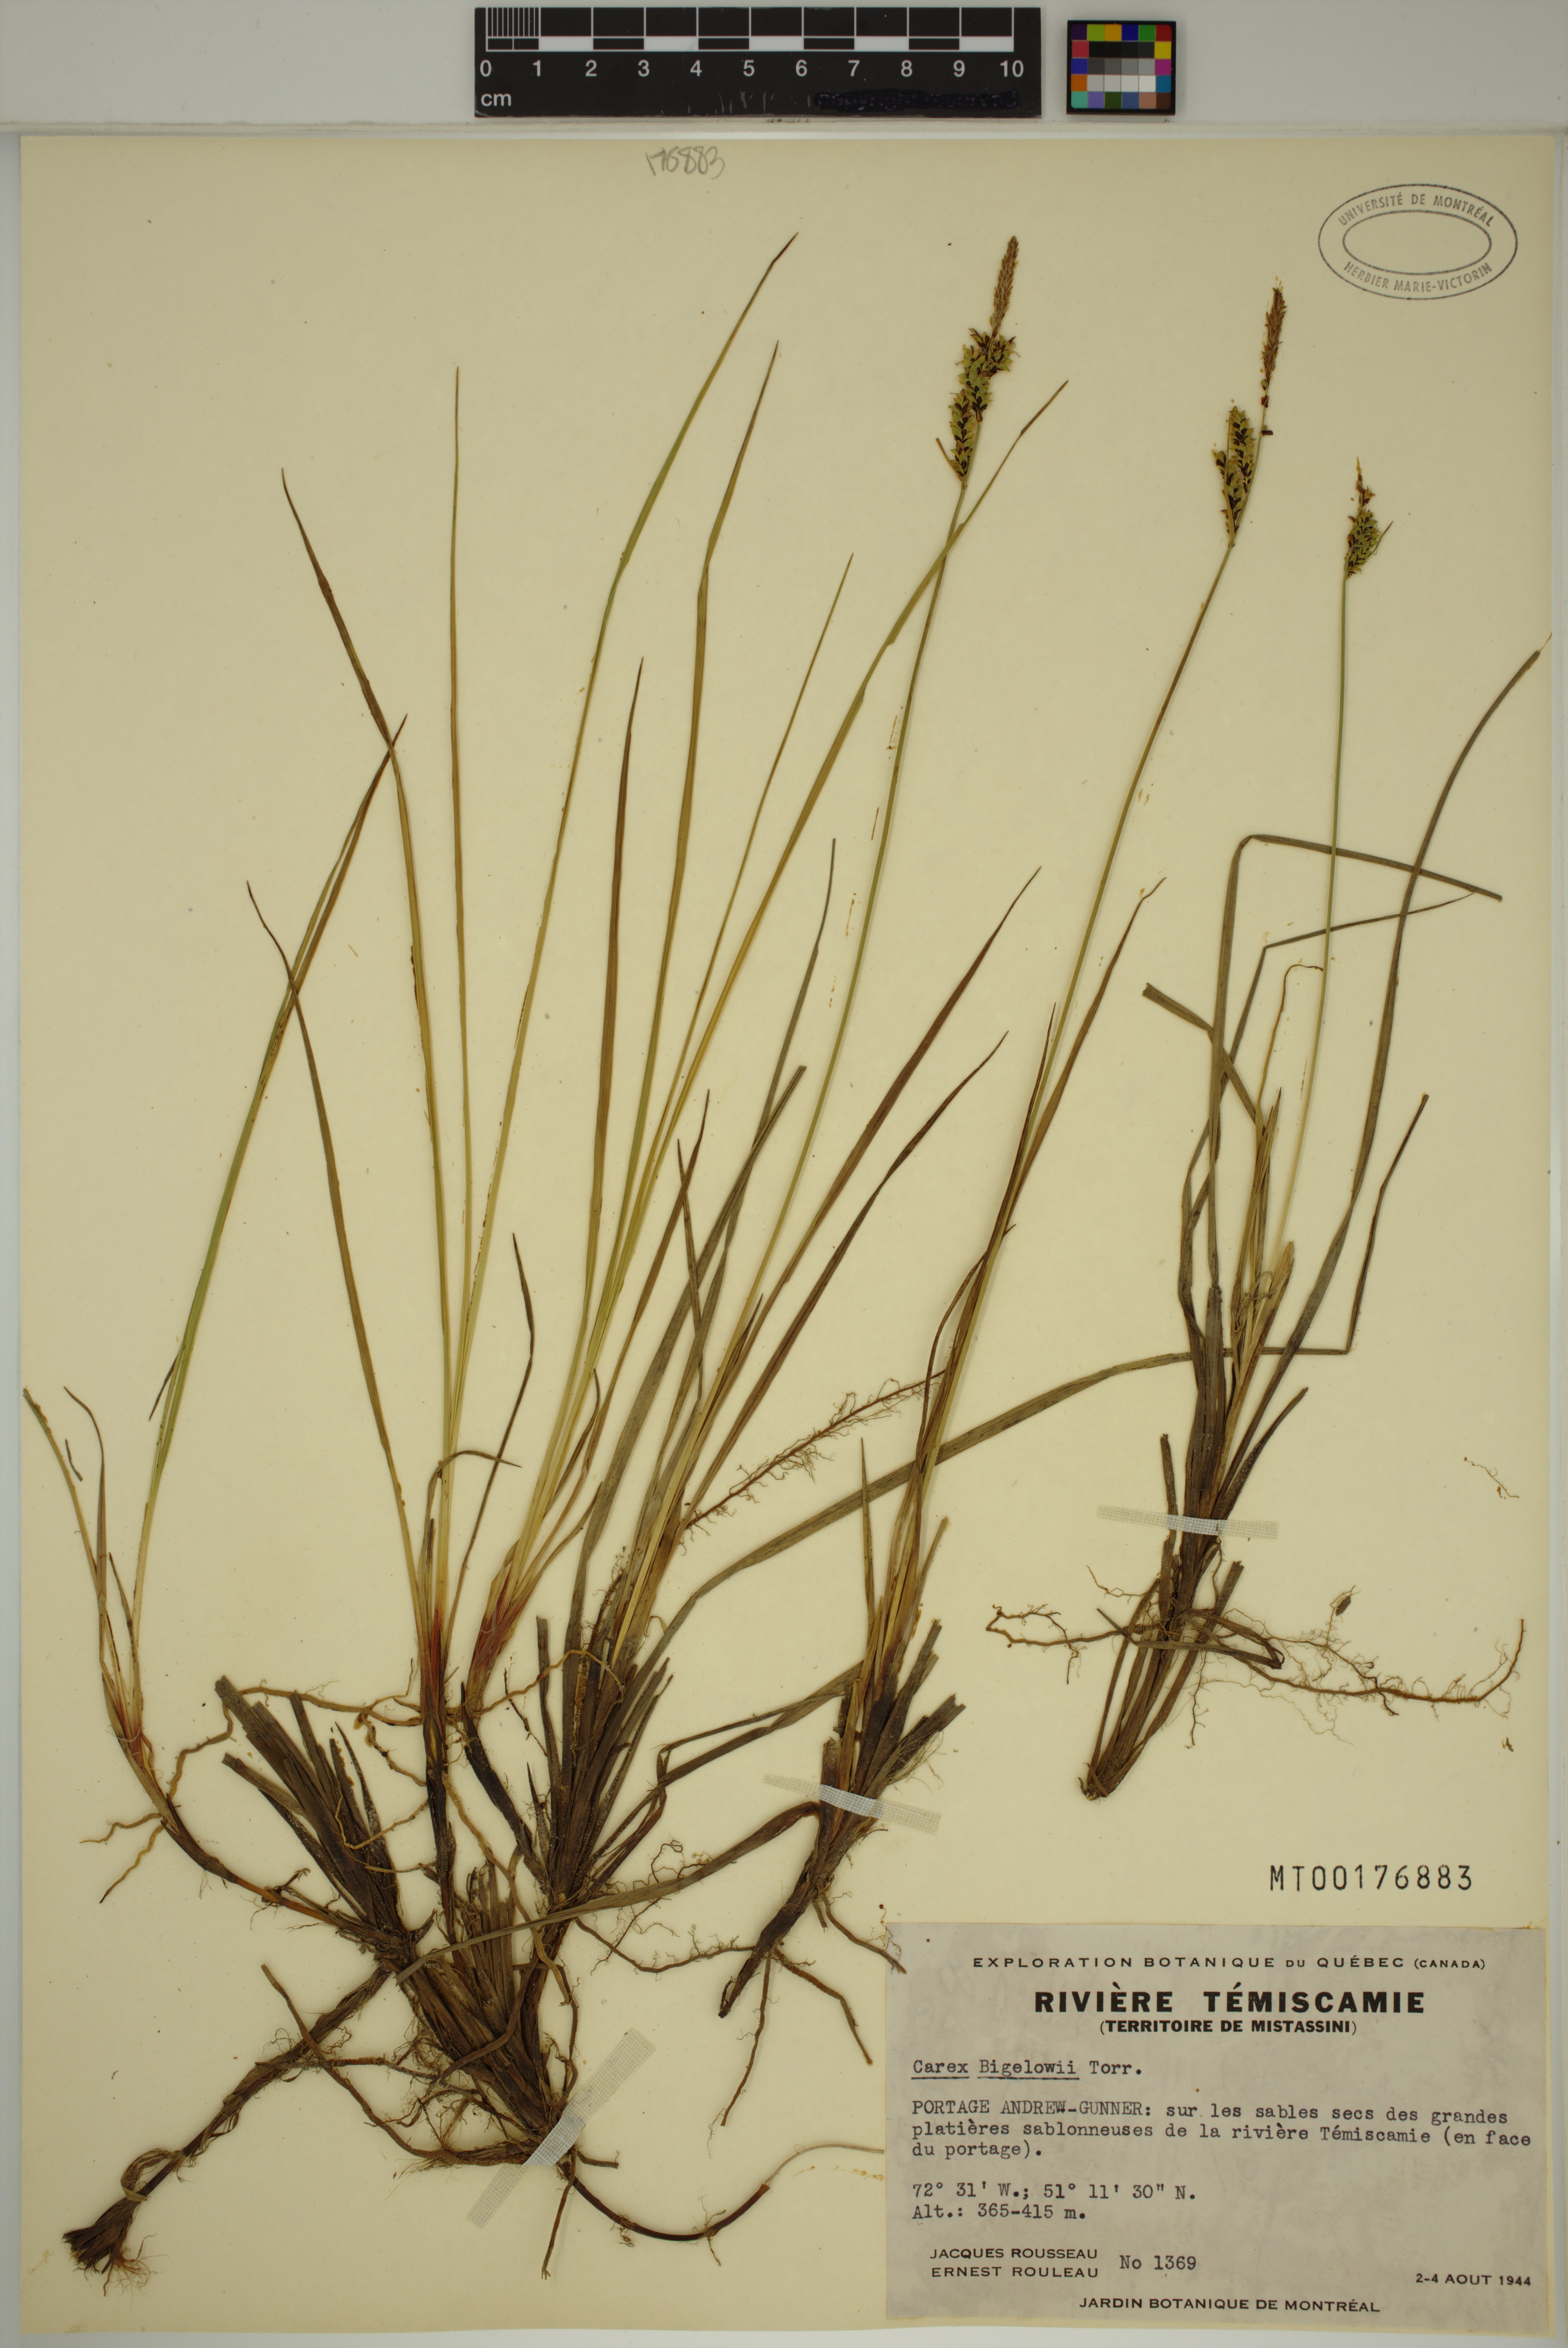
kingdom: Plantae
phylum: Tracheophyta
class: Liliopsida
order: Poales
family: Cyperaceae
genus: Carex
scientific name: Carex bigelowii
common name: Stiff sedge
